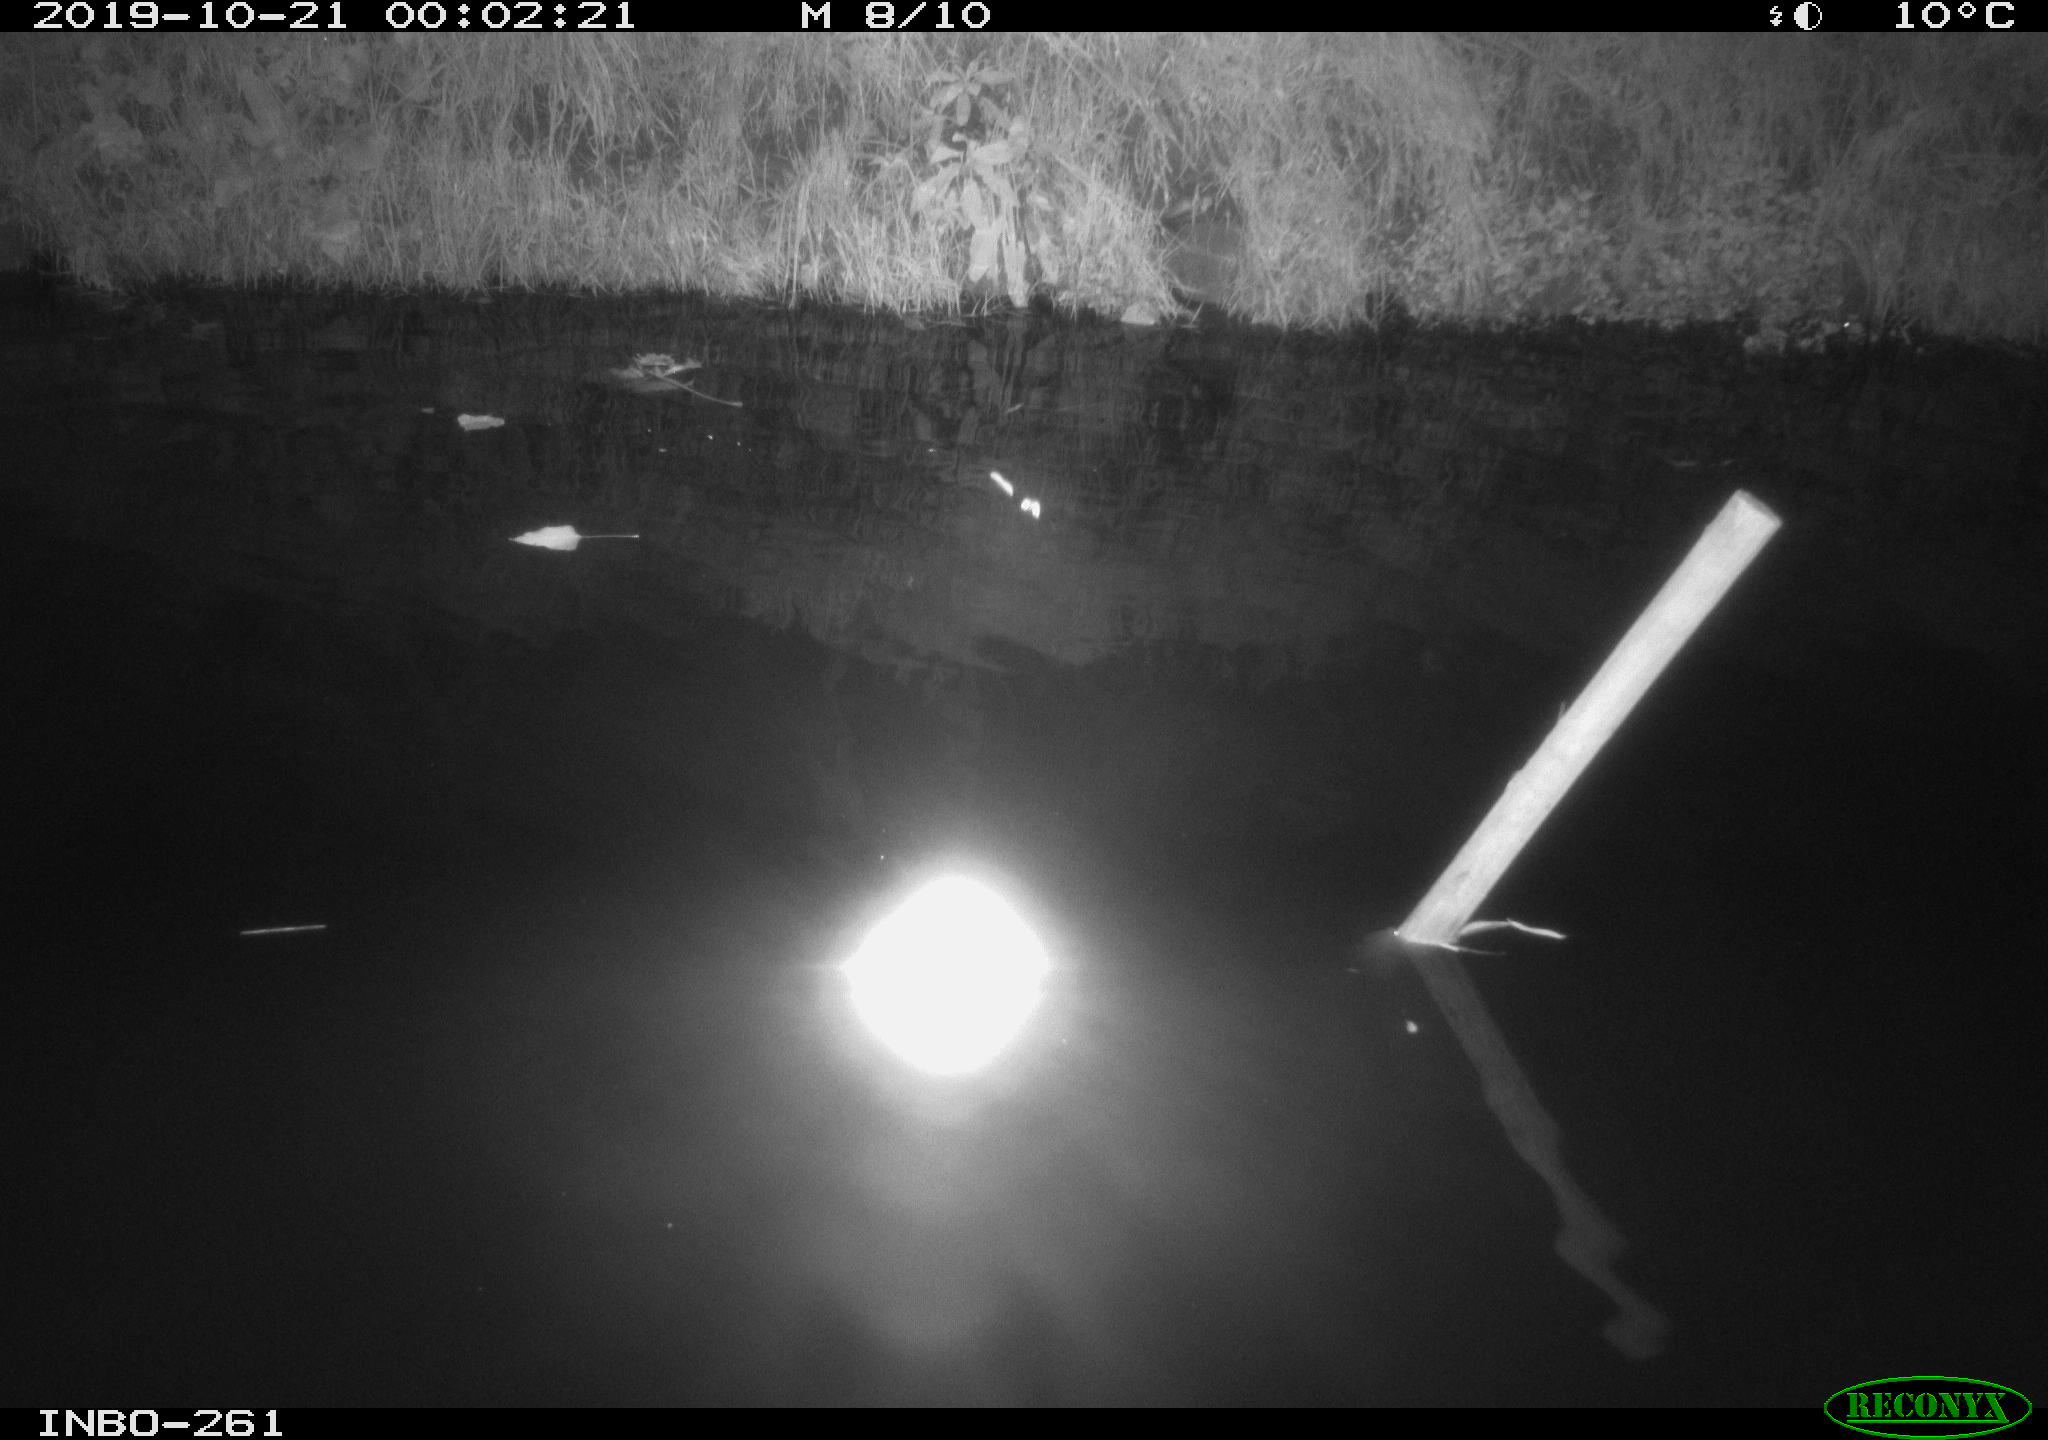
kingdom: Animalia
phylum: Chordata
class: Aves
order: Anseriformes
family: Anatidae
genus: Anas
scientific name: Anas platyrhynchos
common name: Mallard
